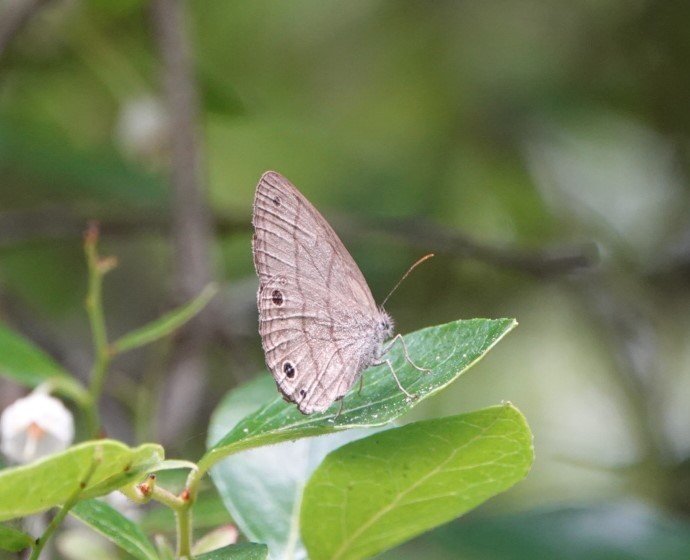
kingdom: Animalia
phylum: Arthropoda
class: Insecta
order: Lepidoptera
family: Nymphalidae
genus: Hermeuptychia
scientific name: Hermeuptychia hermes
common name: Carolina Satyr
